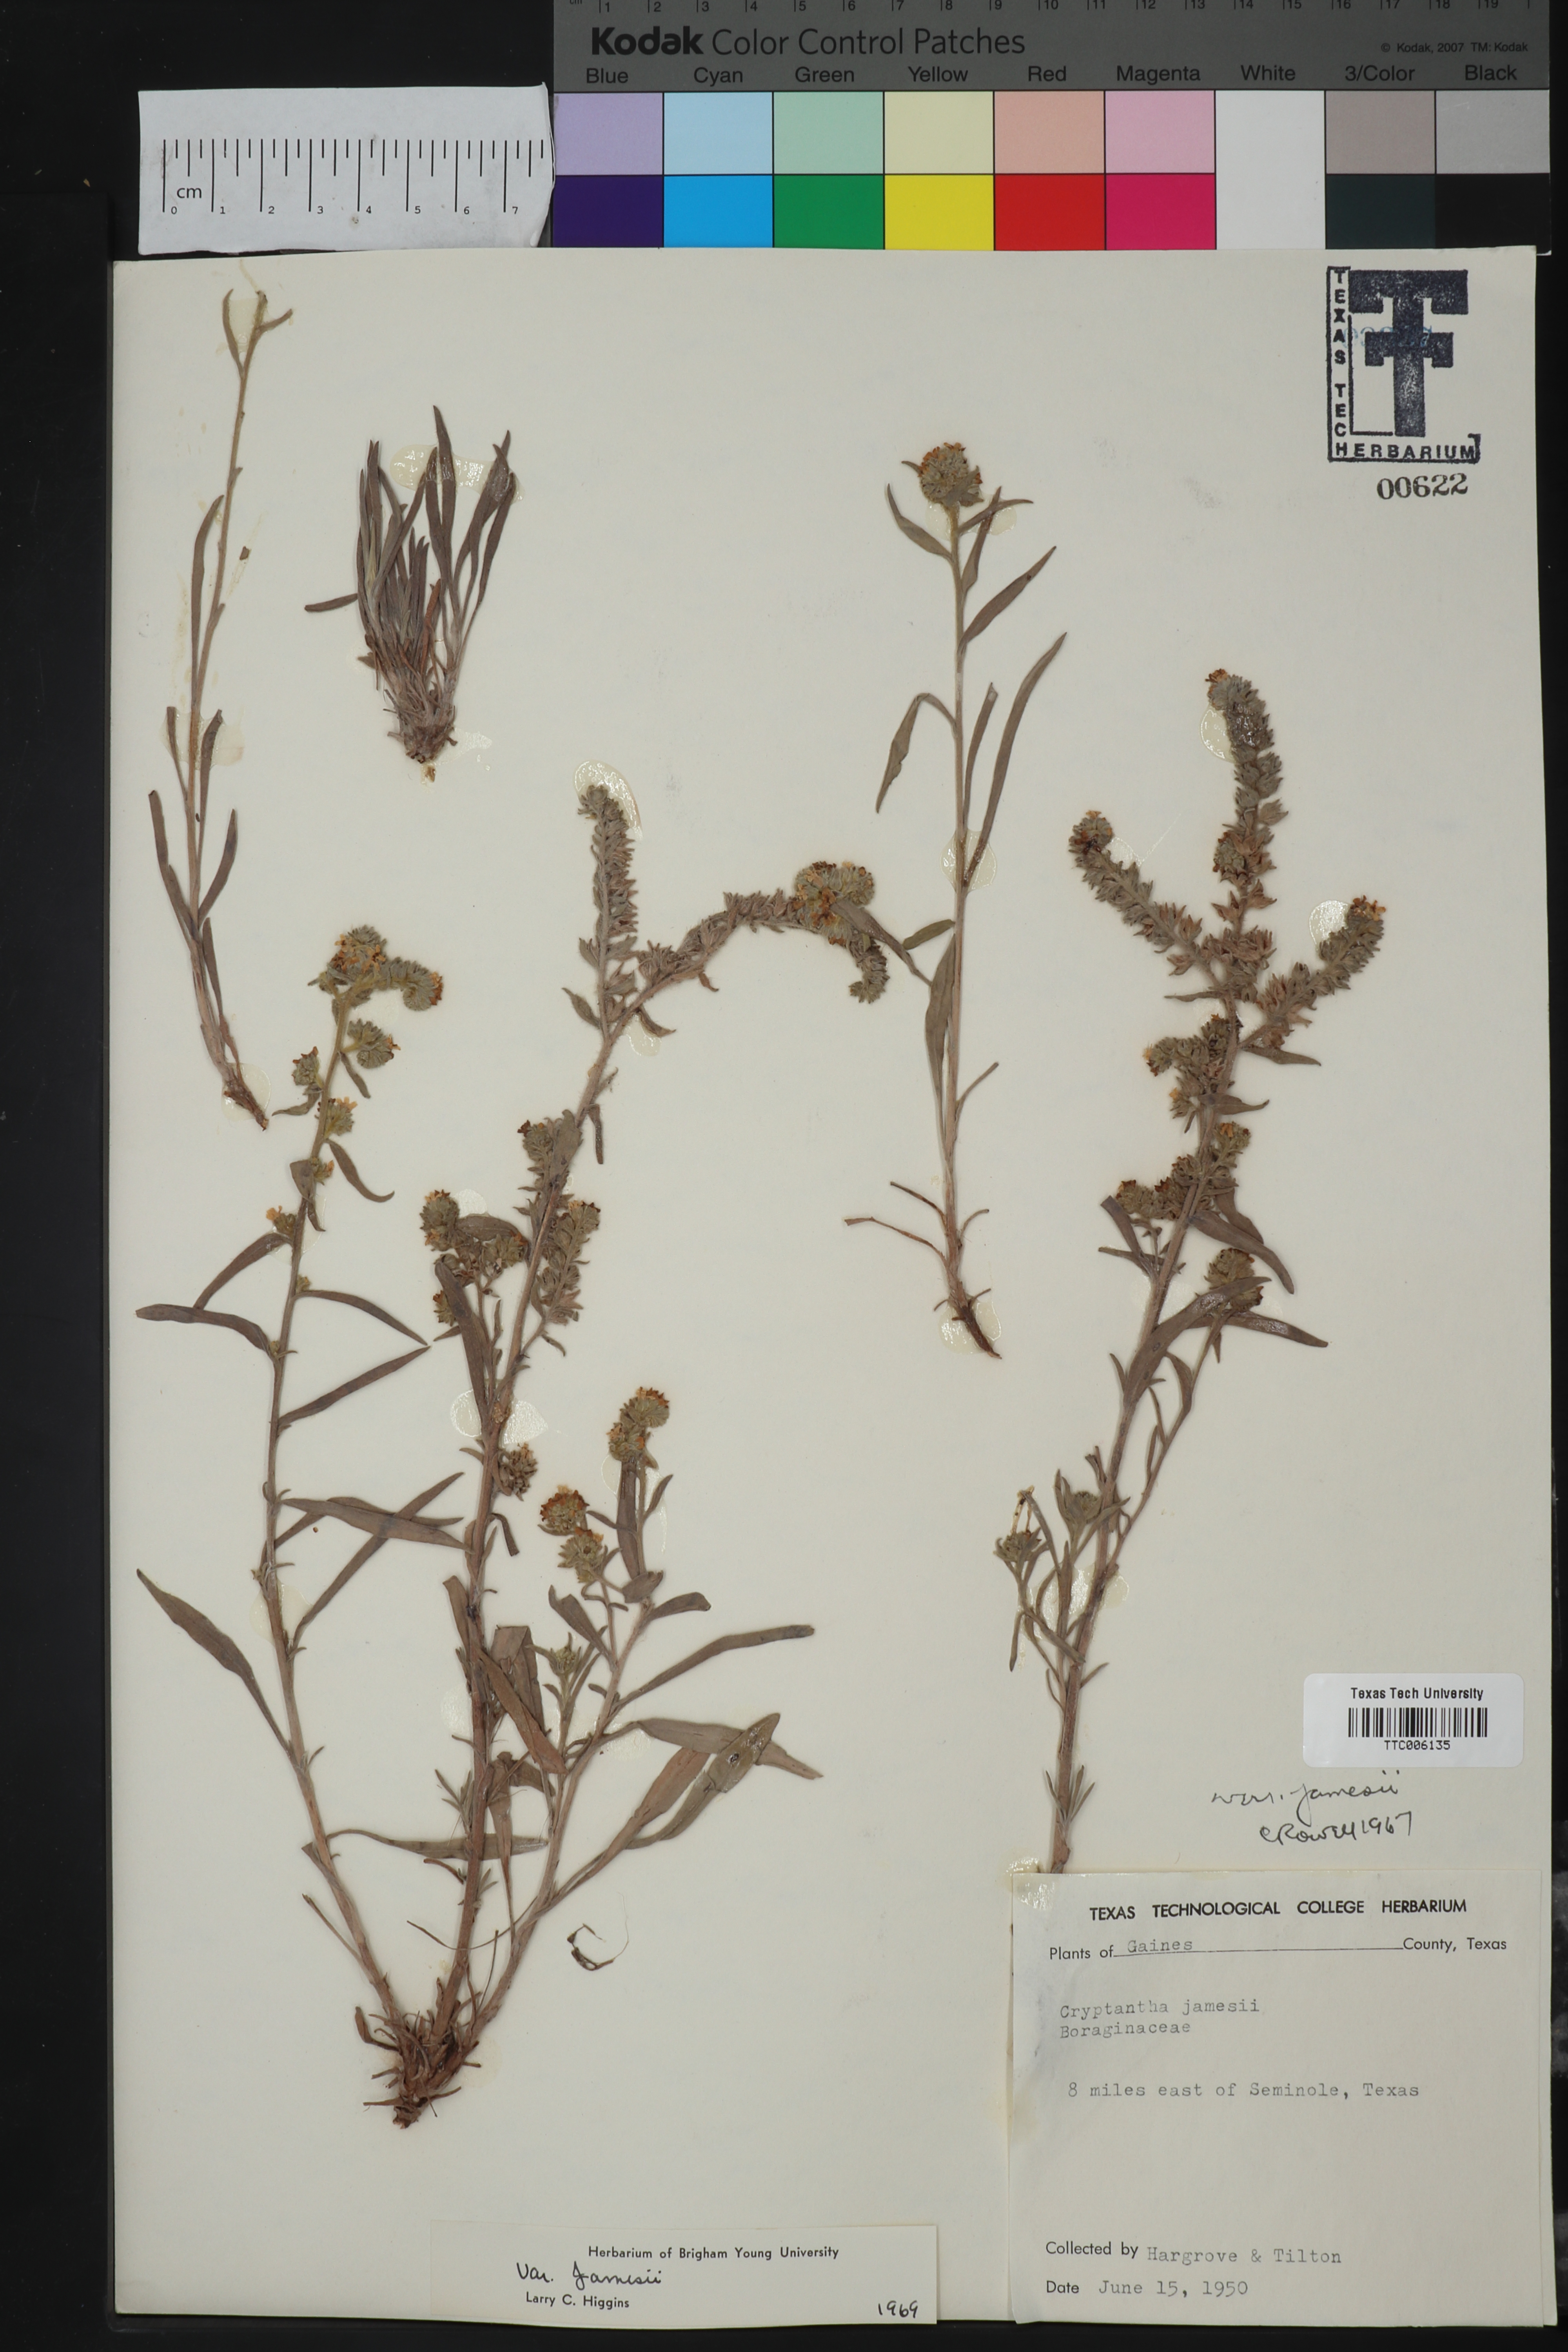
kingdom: Plantae
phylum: Tracheophyta
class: Magnoliopsida
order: Boraginales
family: Boraginaceae
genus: Oreocarya
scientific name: Oreocarya suffruticosa
